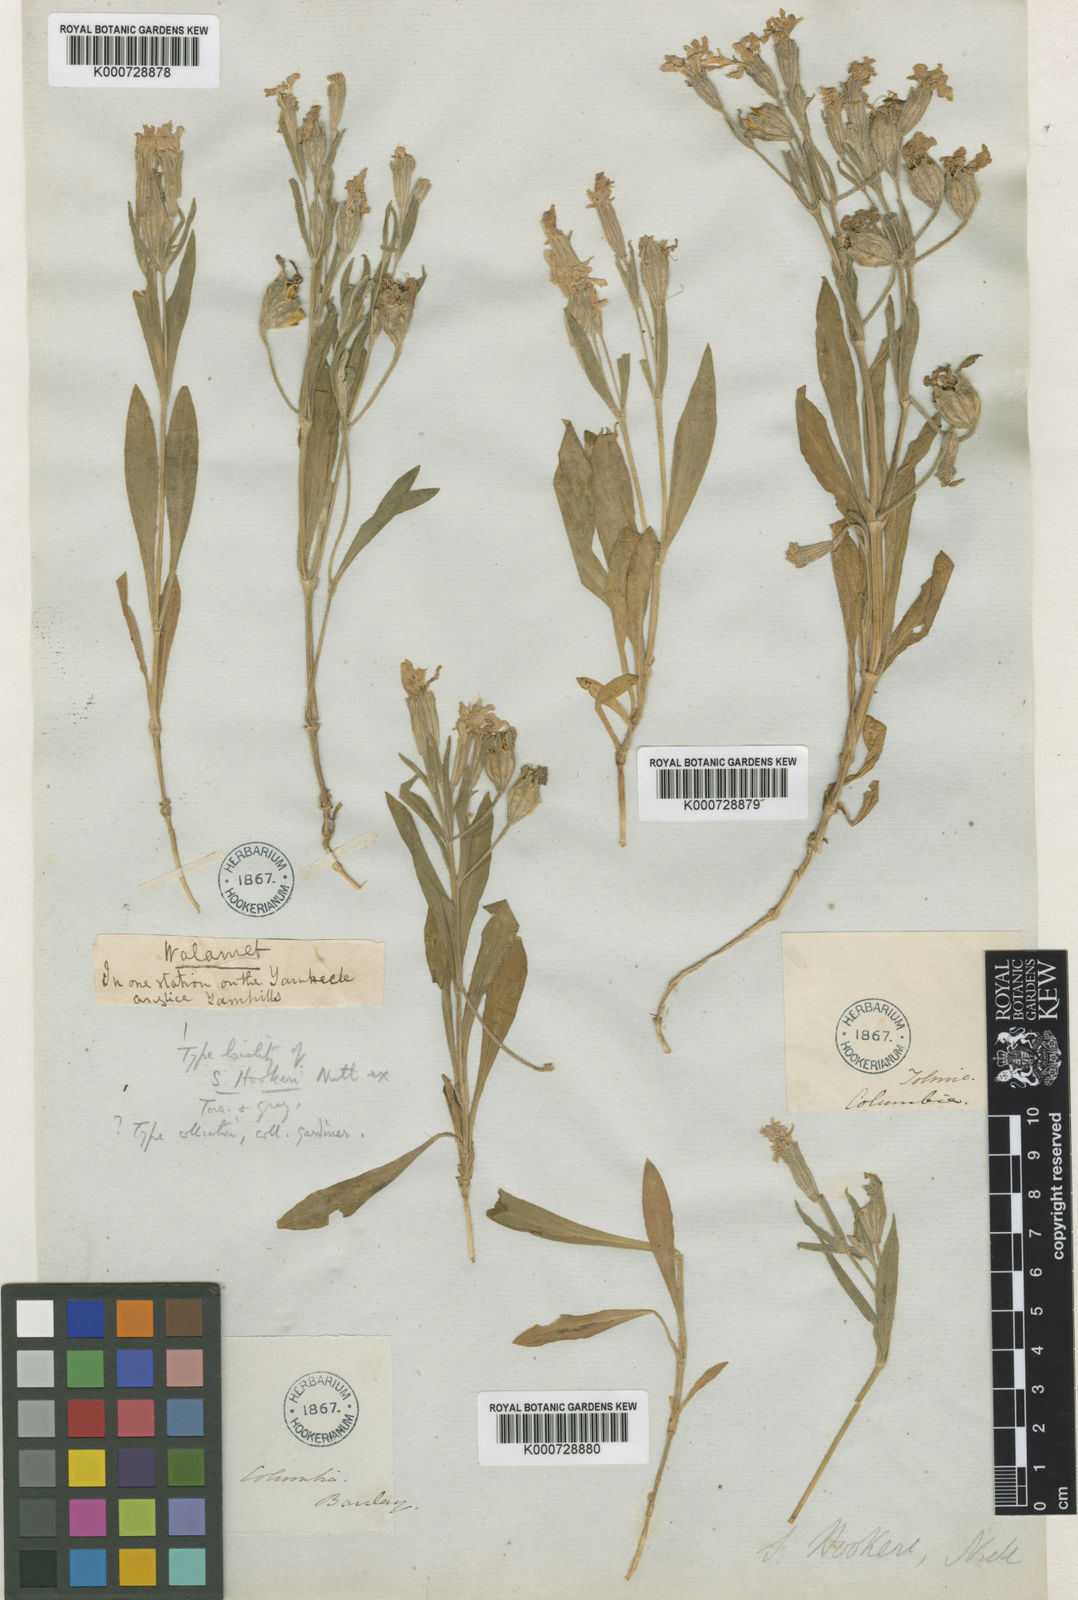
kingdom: Plantae
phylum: Tracheophyta
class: Magnoliopsida
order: Caryophyllales
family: Caryophyllaceae
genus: Silene
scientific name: Silene bolanderi
